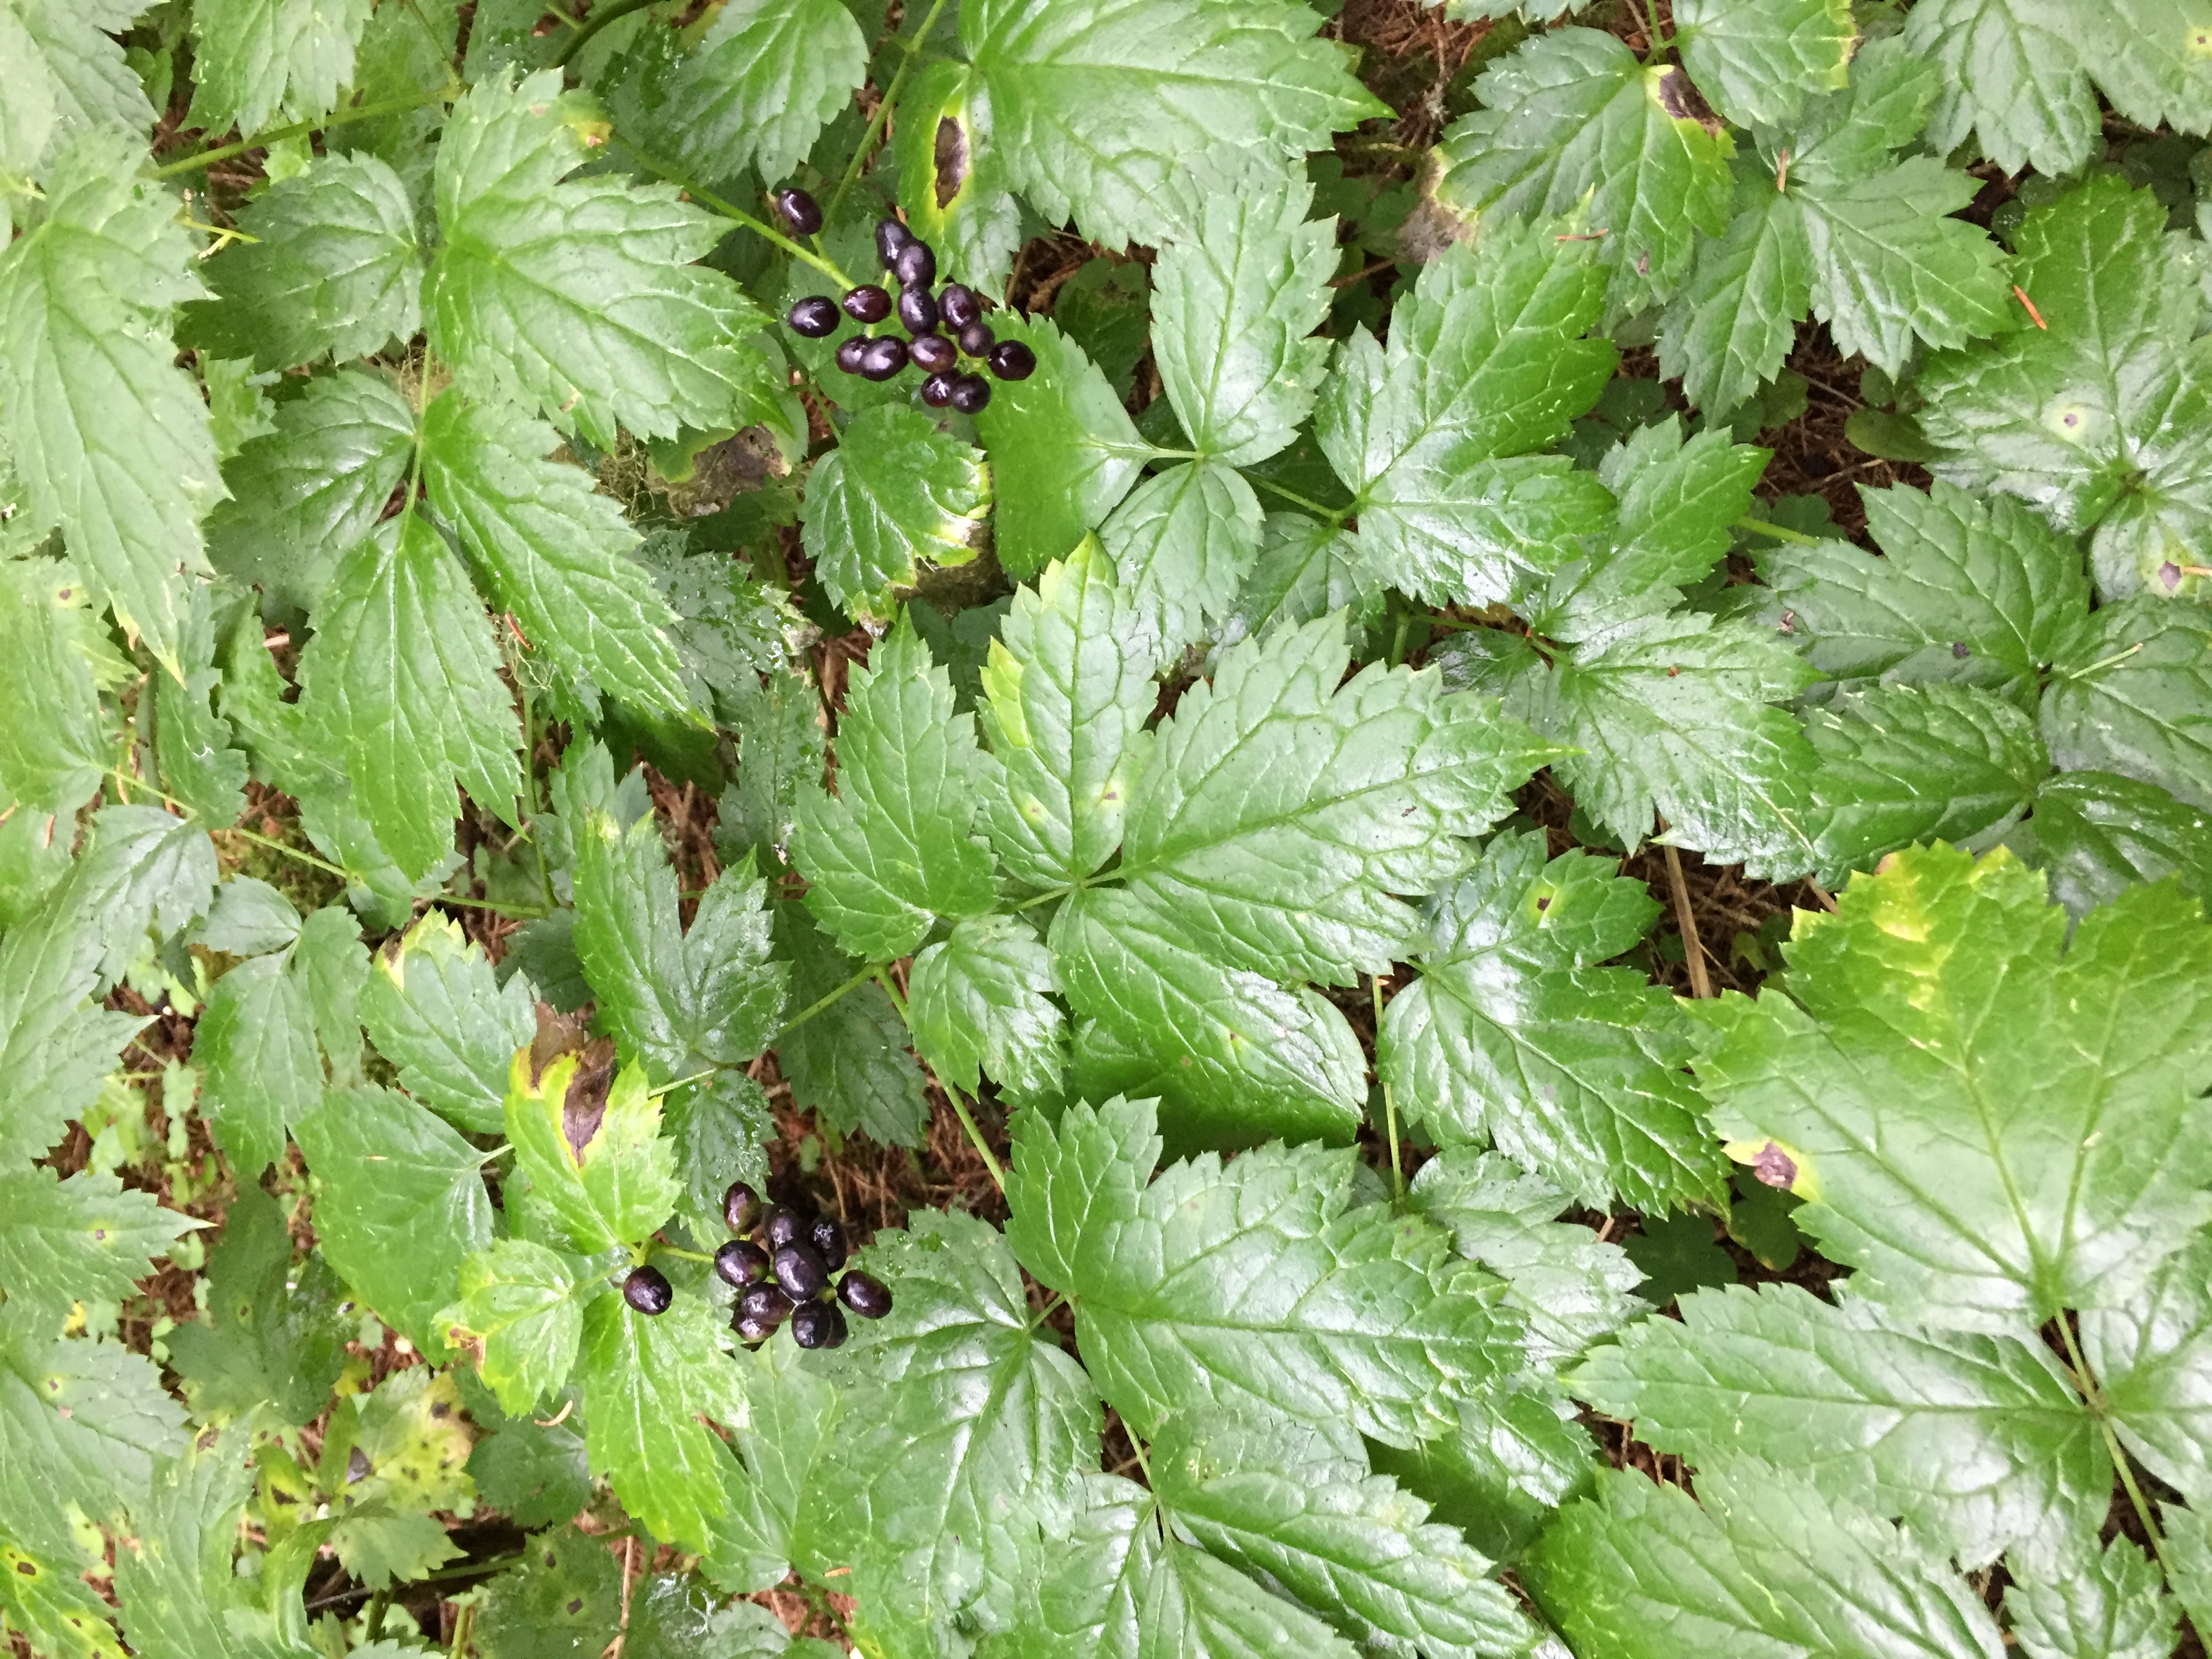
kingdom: Plantae
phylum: Tracheophyta
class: Magnoliopsida
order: Ranunculales
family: Ranunculaceae
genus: Actaea
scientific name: Actaea spicata
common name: Baneberry
